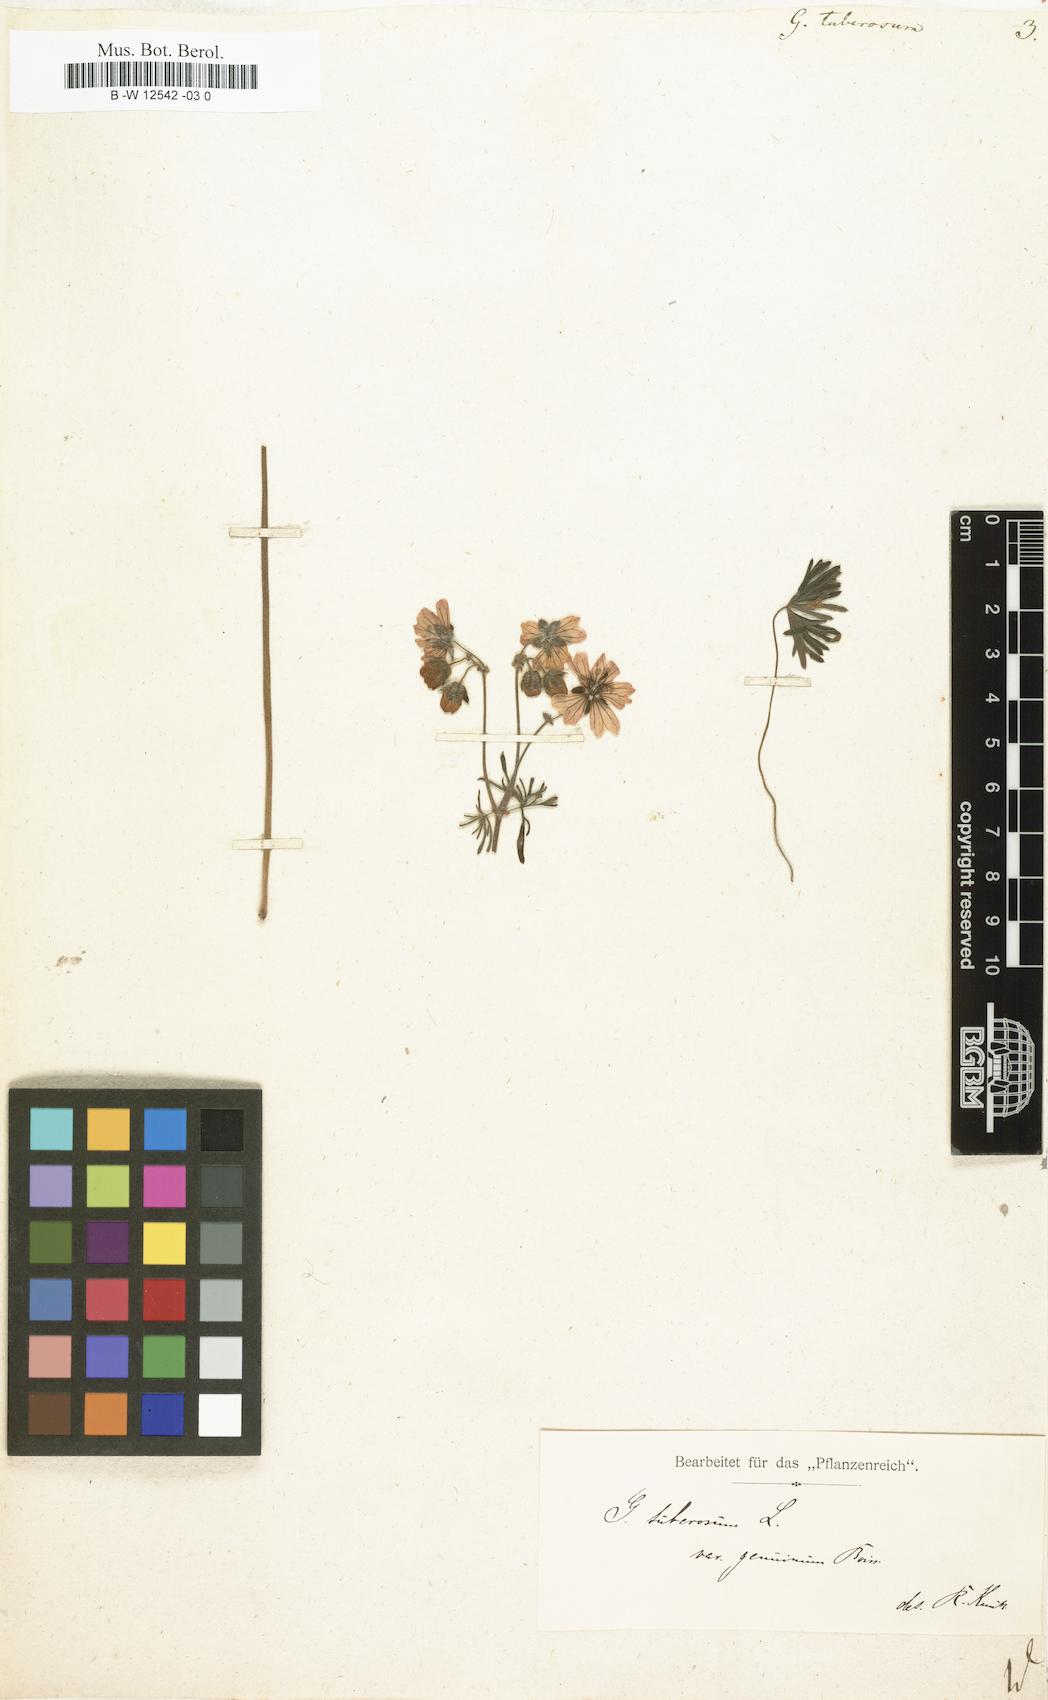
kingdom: Plantae
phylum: Tracheophyta
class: Magnoliopsida
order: Geraniales
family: Geraniaceae
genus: Geranium
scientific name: Geranium tuberosum
